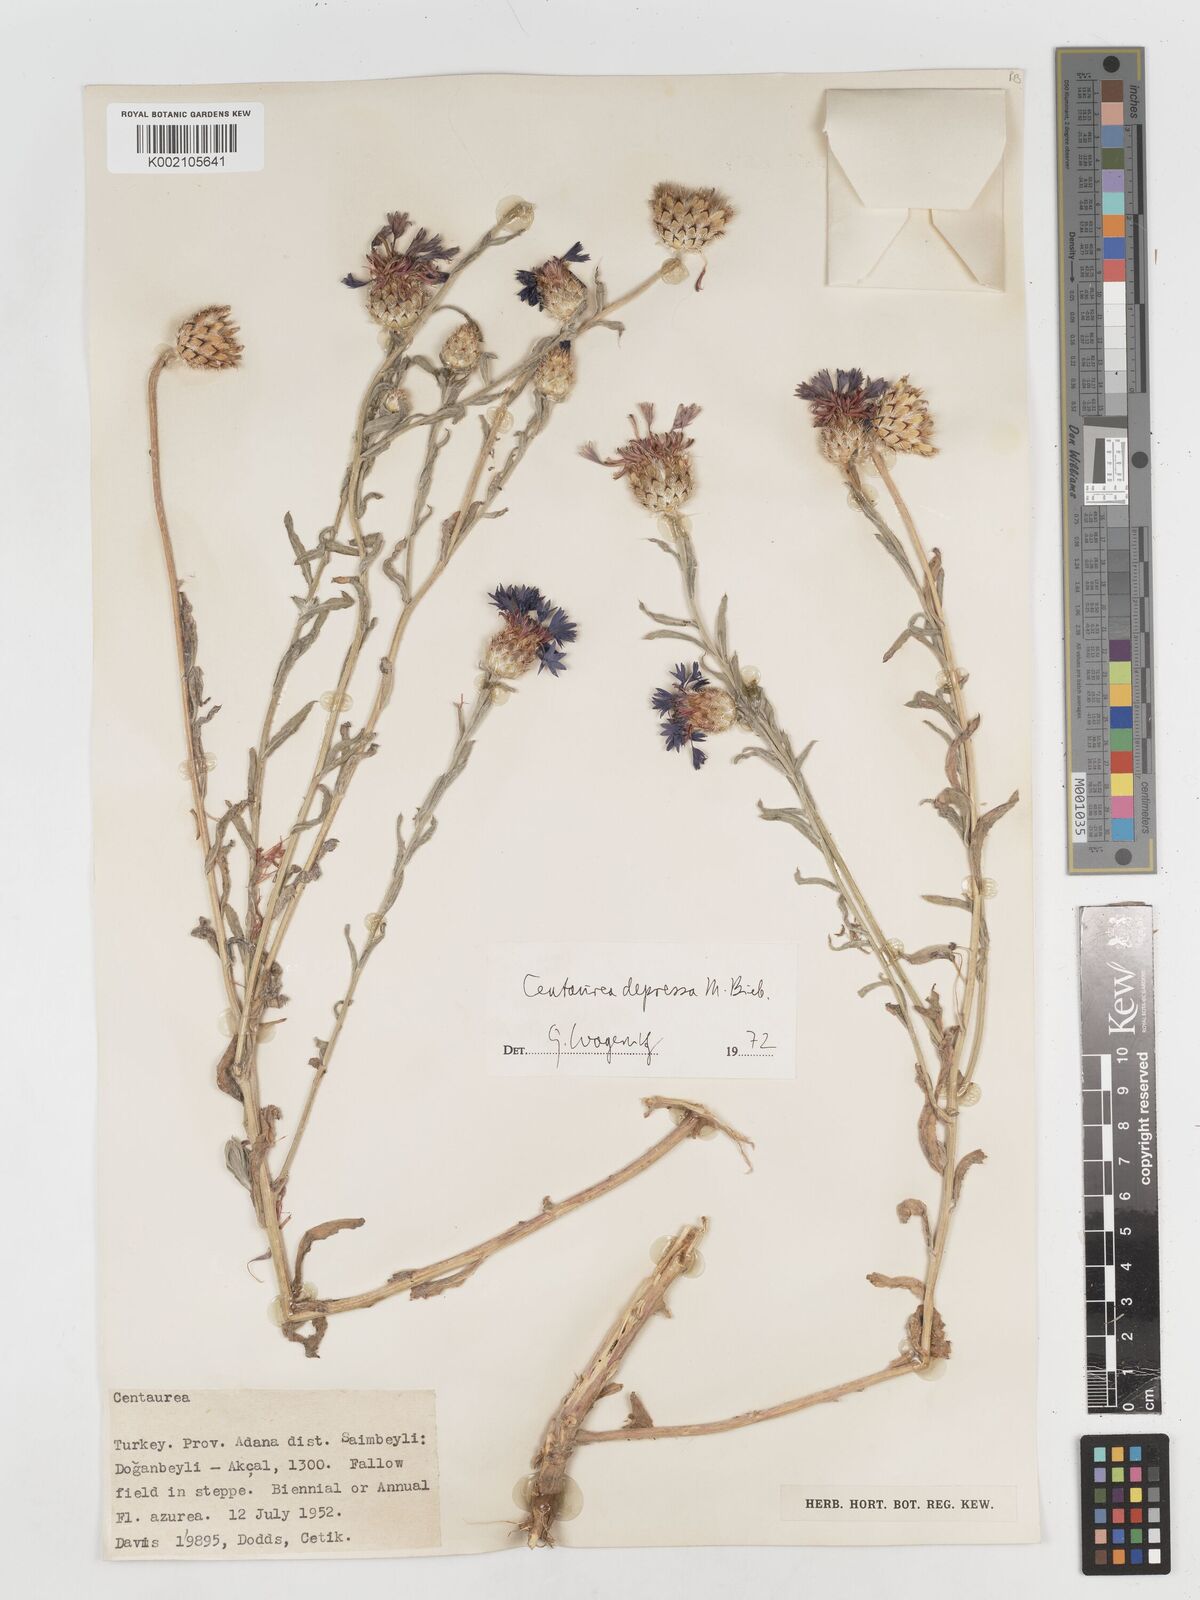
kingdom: Plantae
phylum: Tracheophyta
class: Magnoliopsida
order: Asterales
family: Asteraceae
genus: Centaurea
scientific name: Centaurea depressa
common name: Iranian knapweed
